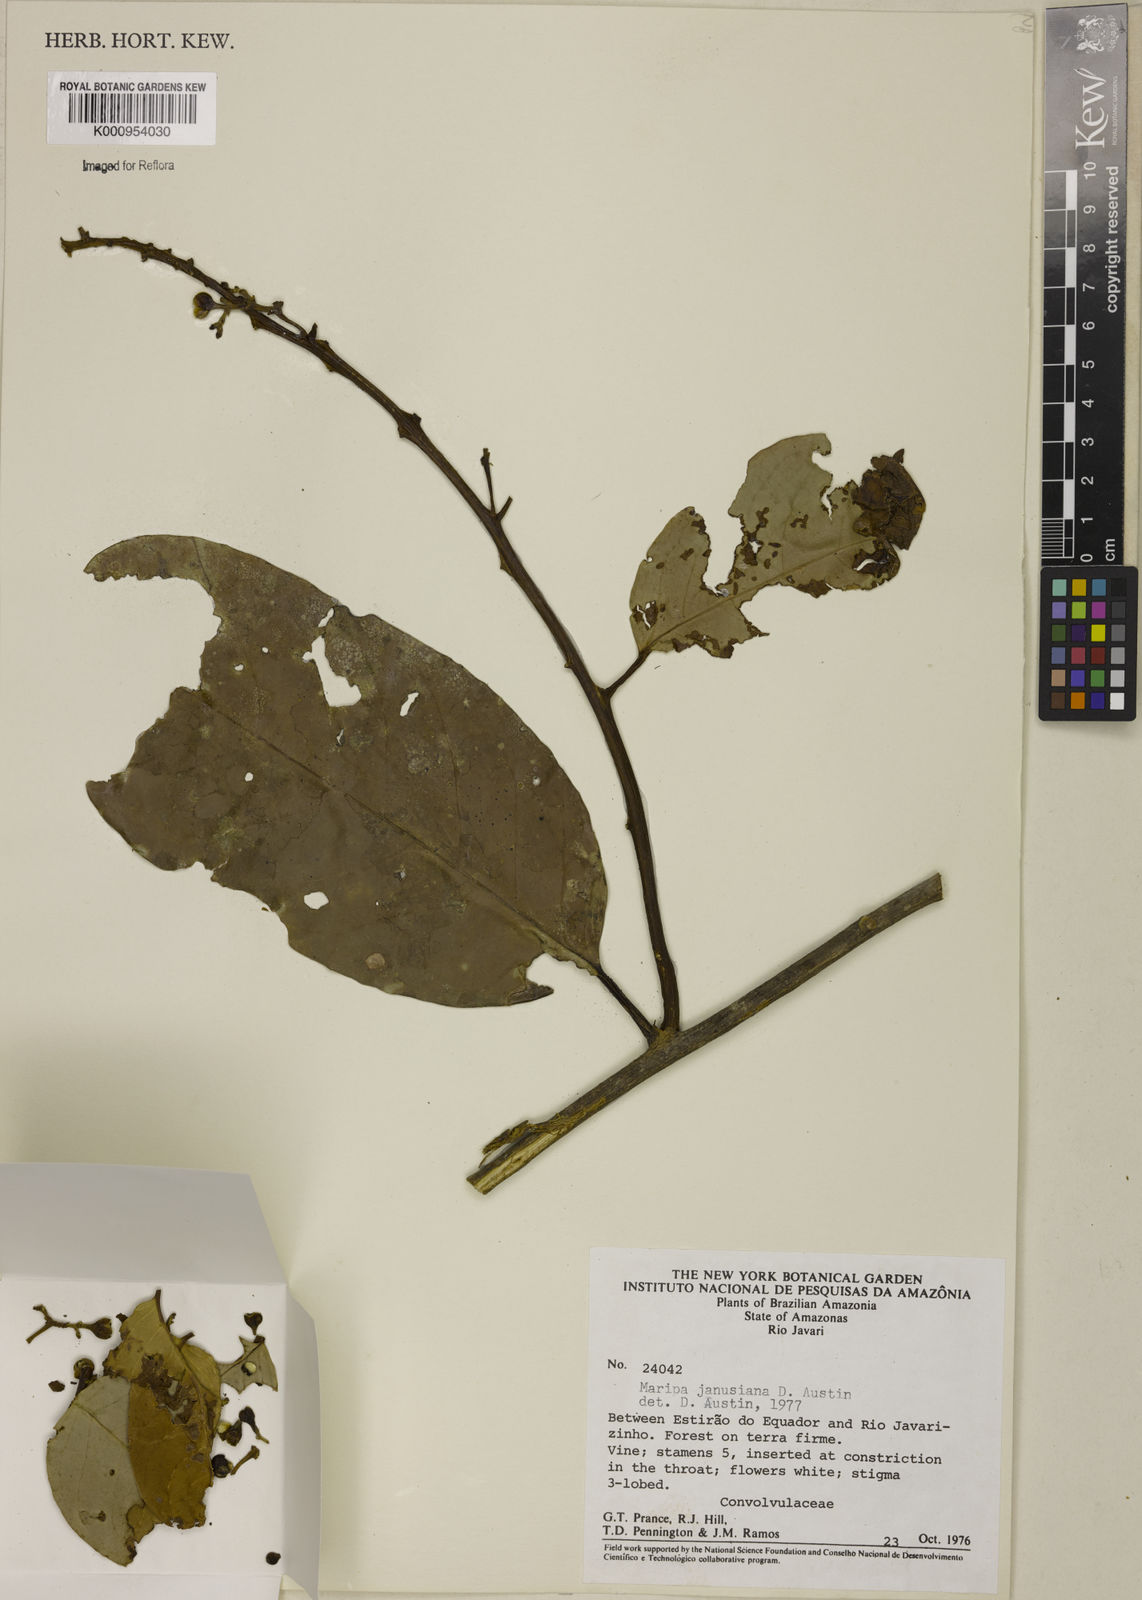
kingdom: Plantae
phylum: Tracheophyta
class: Magnoliopsida
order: Solanales
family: Convolvulaceae
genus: Maripa
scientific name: Maripa janusiana
